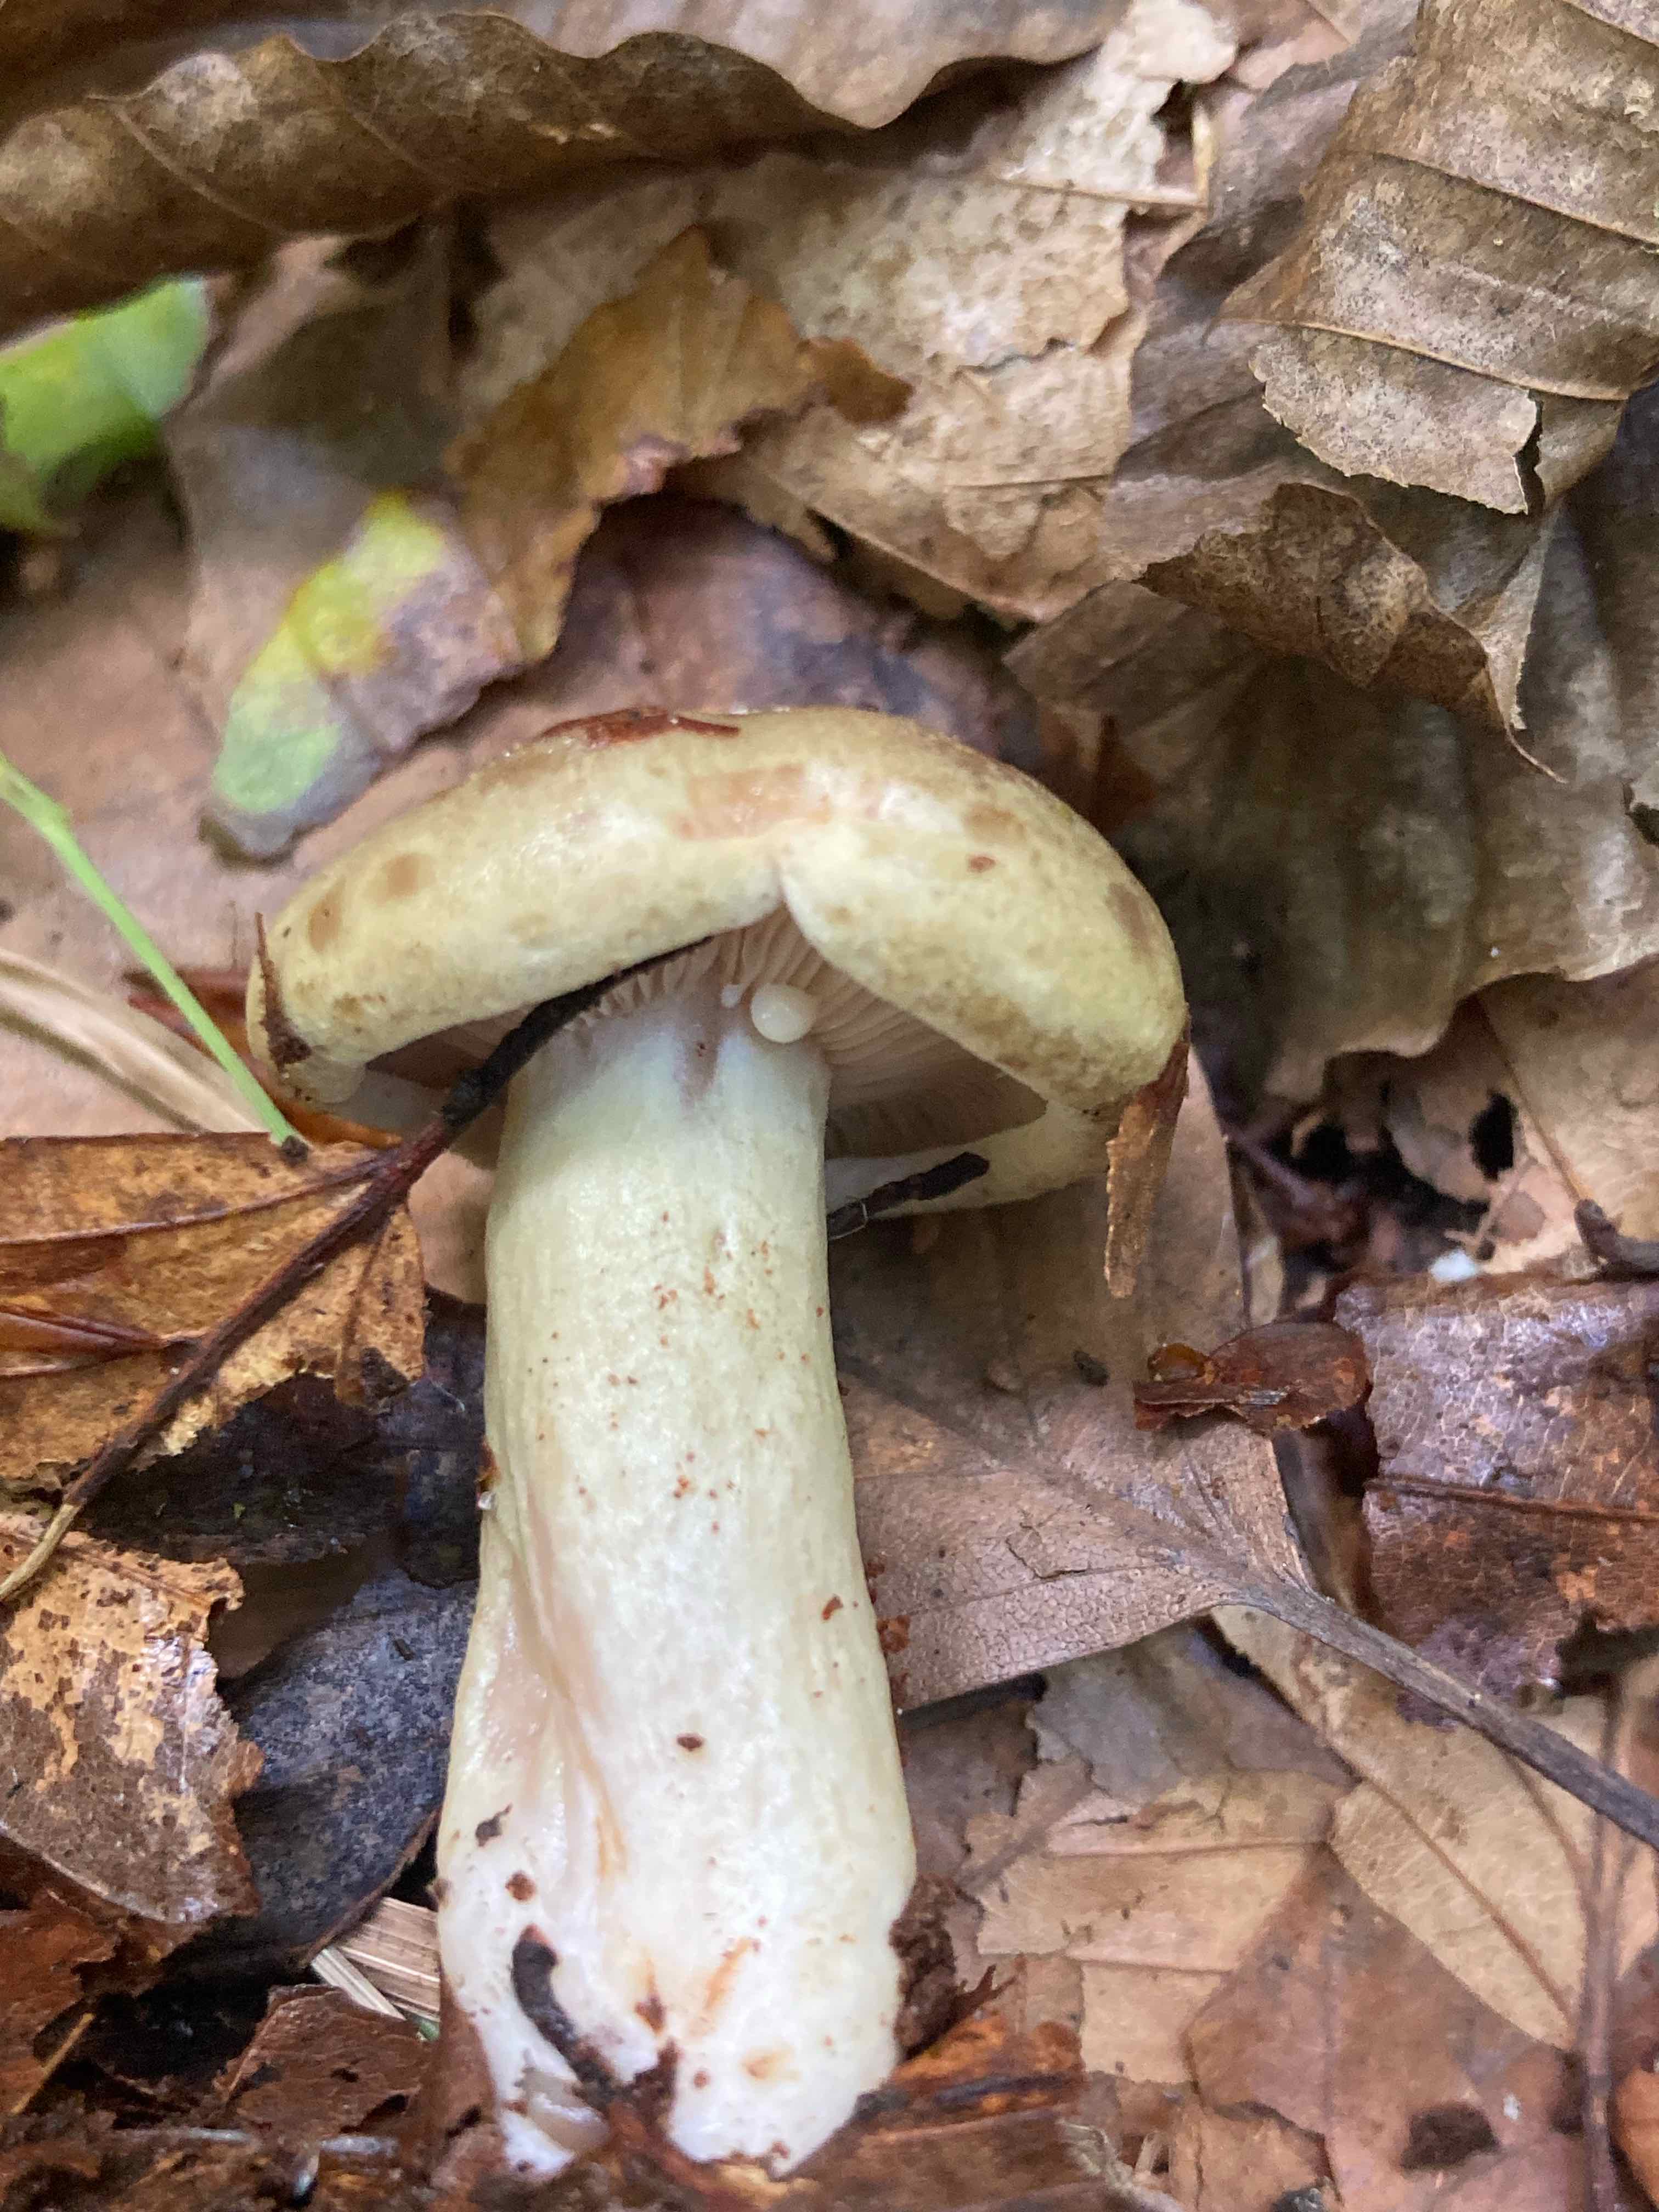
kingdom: Fungi
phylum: Basidiomycota
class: Agaricomycetes
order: Russulales
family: Russulaceae
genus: Lactarius
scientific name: Lactarius blennius
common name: dråbeplettet mælkehat
